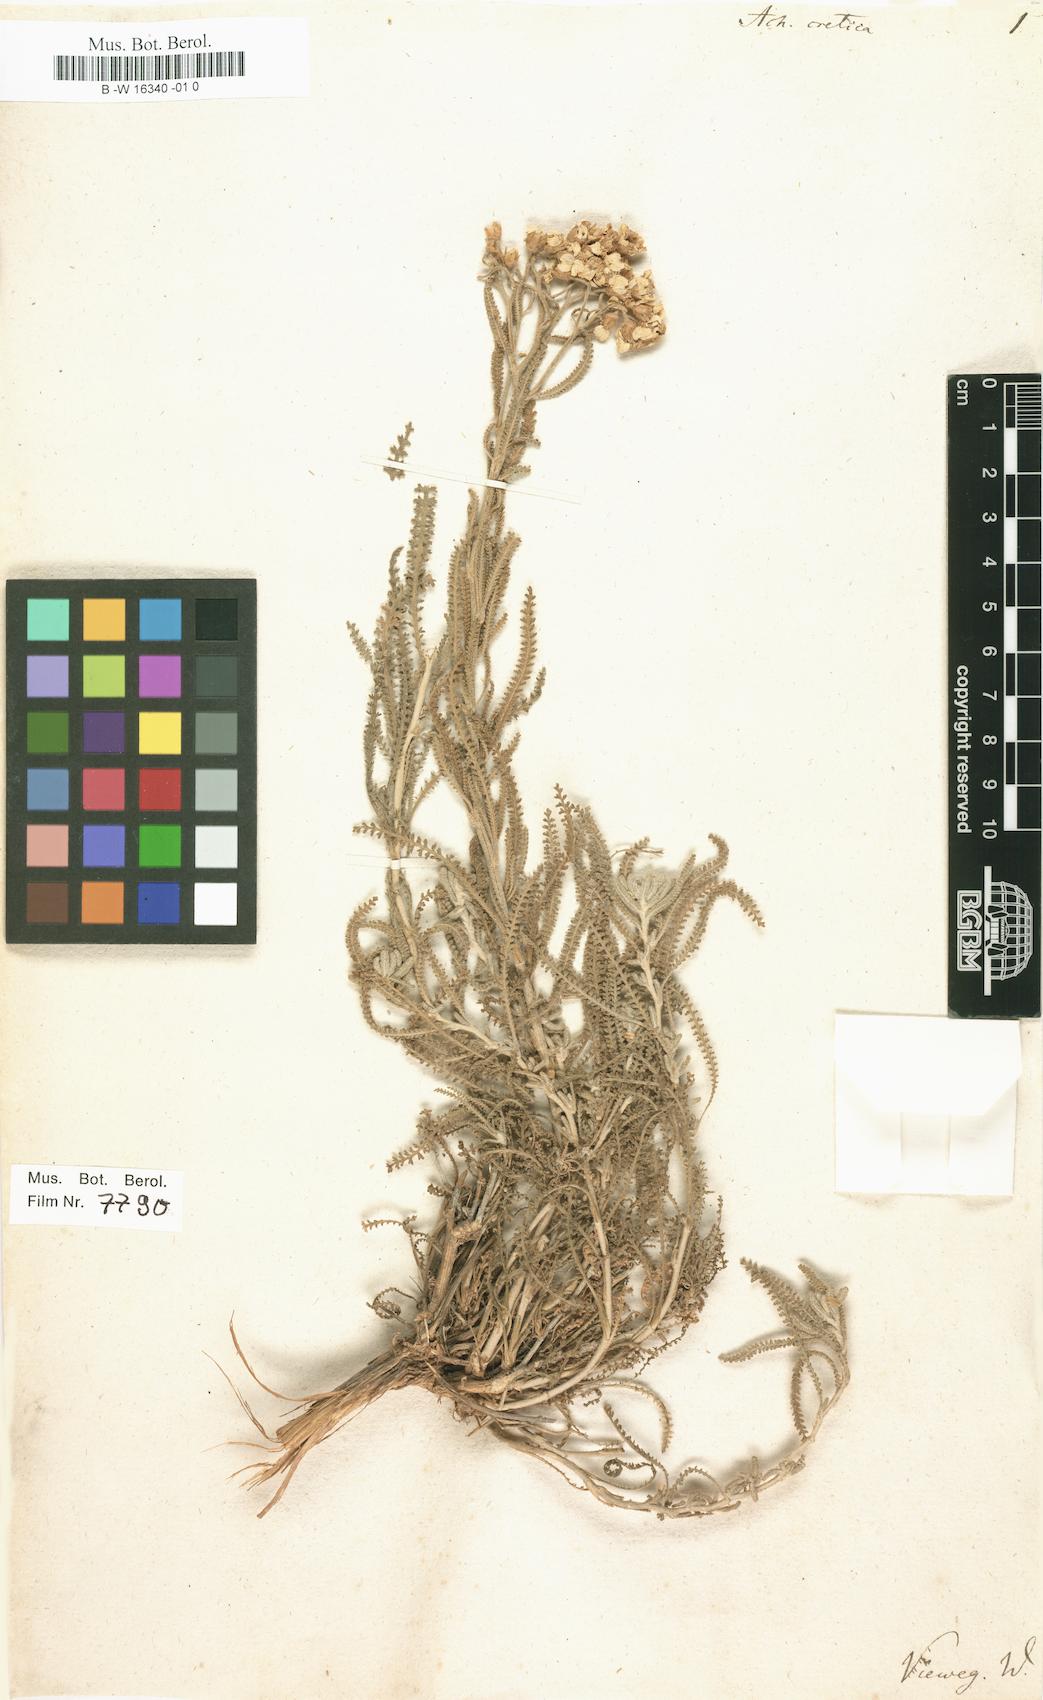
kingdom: Plantae
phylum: Tracheophyta
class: Magnoliopsida
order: Asterales
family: Asteraceae
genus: Achillea
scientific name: Achillea cretica
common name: Chamomile-leaved lavender-cotton
